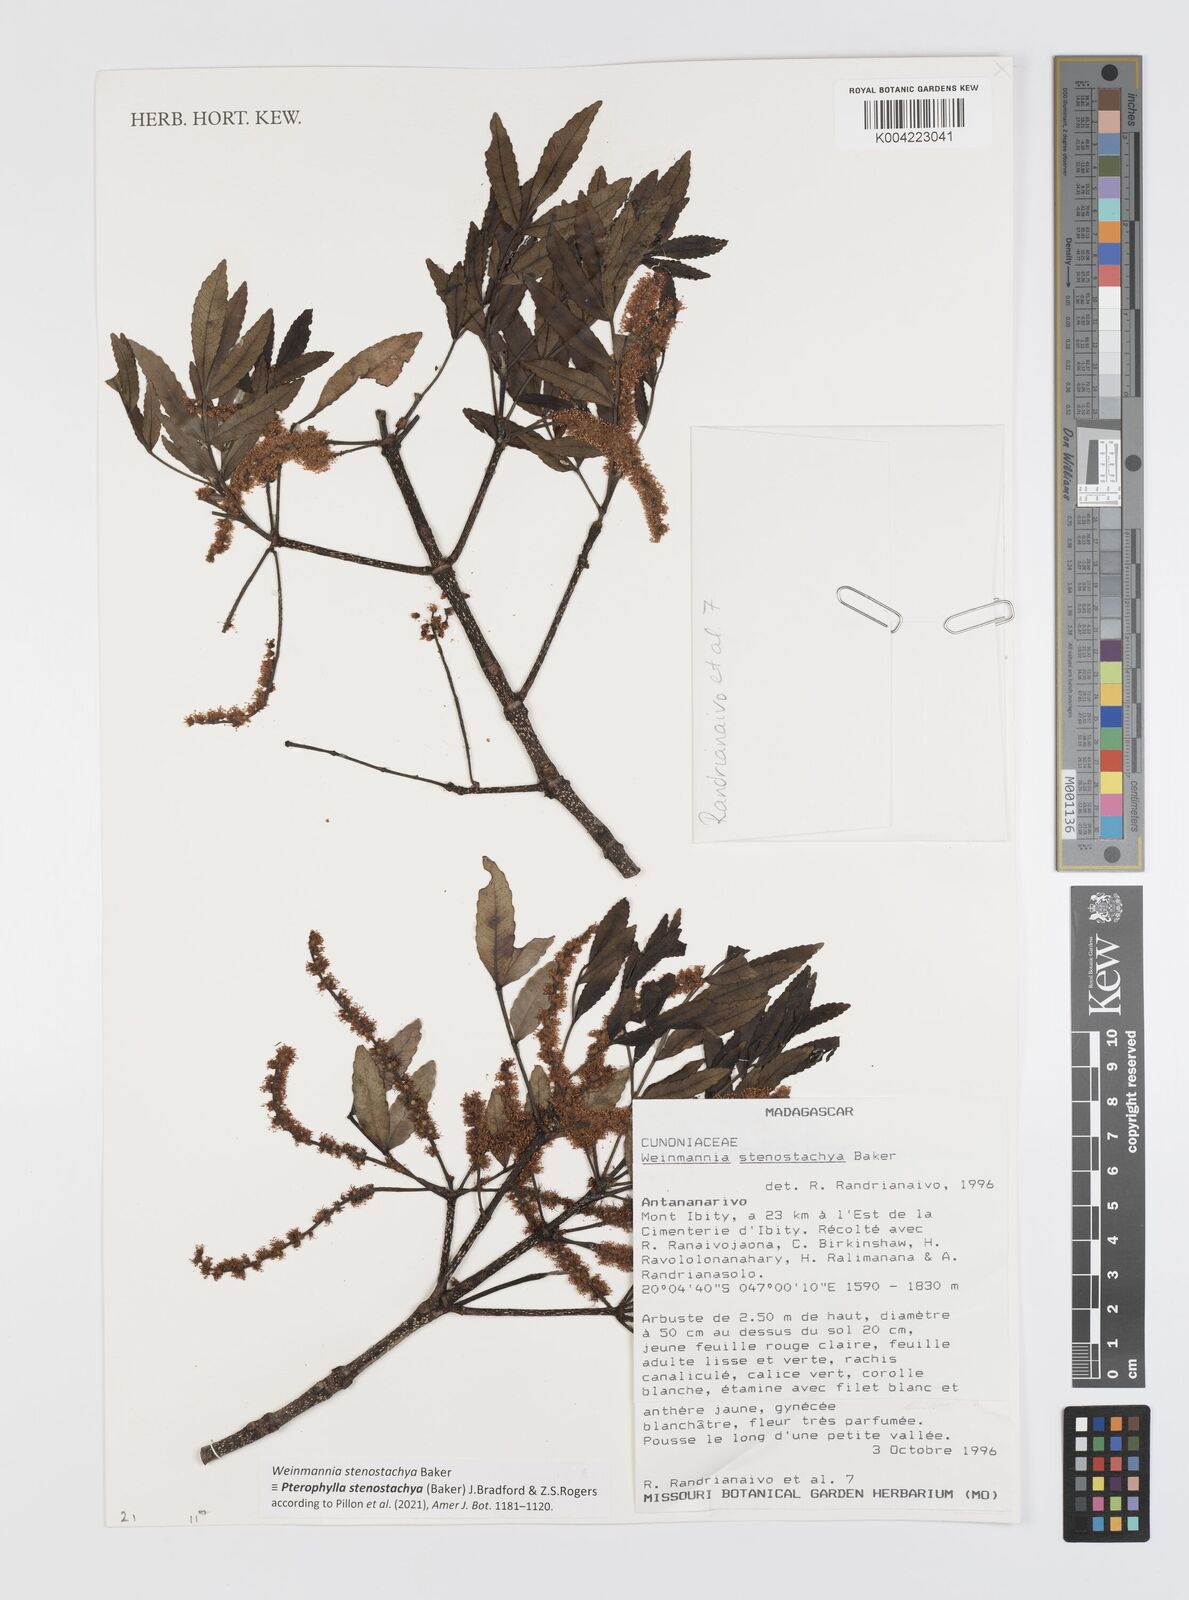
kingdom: Plantae
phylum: Tracheophyta
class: Magnoliopsida
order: Oxalidales
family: Cunoniaceae
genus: Pterophylla
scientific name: Pterophylla stenostachya
